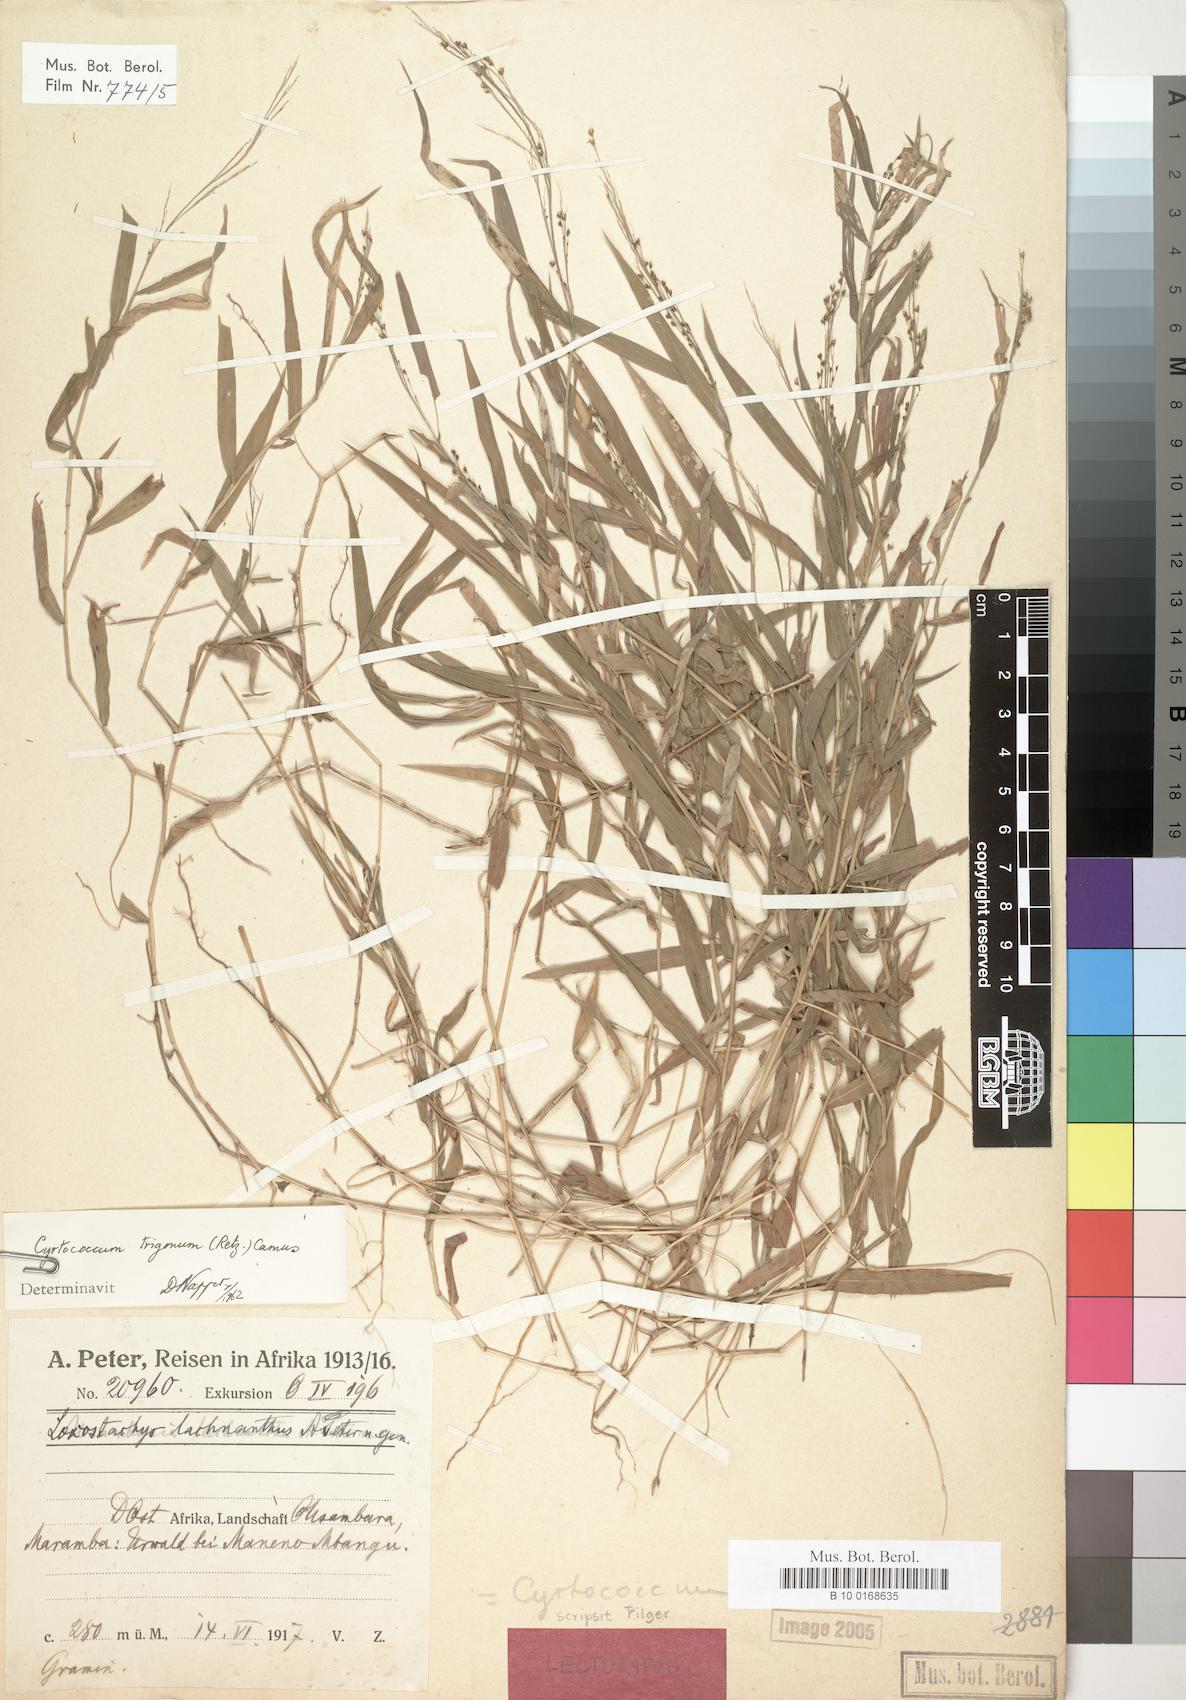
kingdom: Plantae
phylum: Tracheophyta
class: Liliopsida
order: Poales
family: Poaceae
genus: Cyrtococcum
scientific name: Cyrtococcum trigonum
